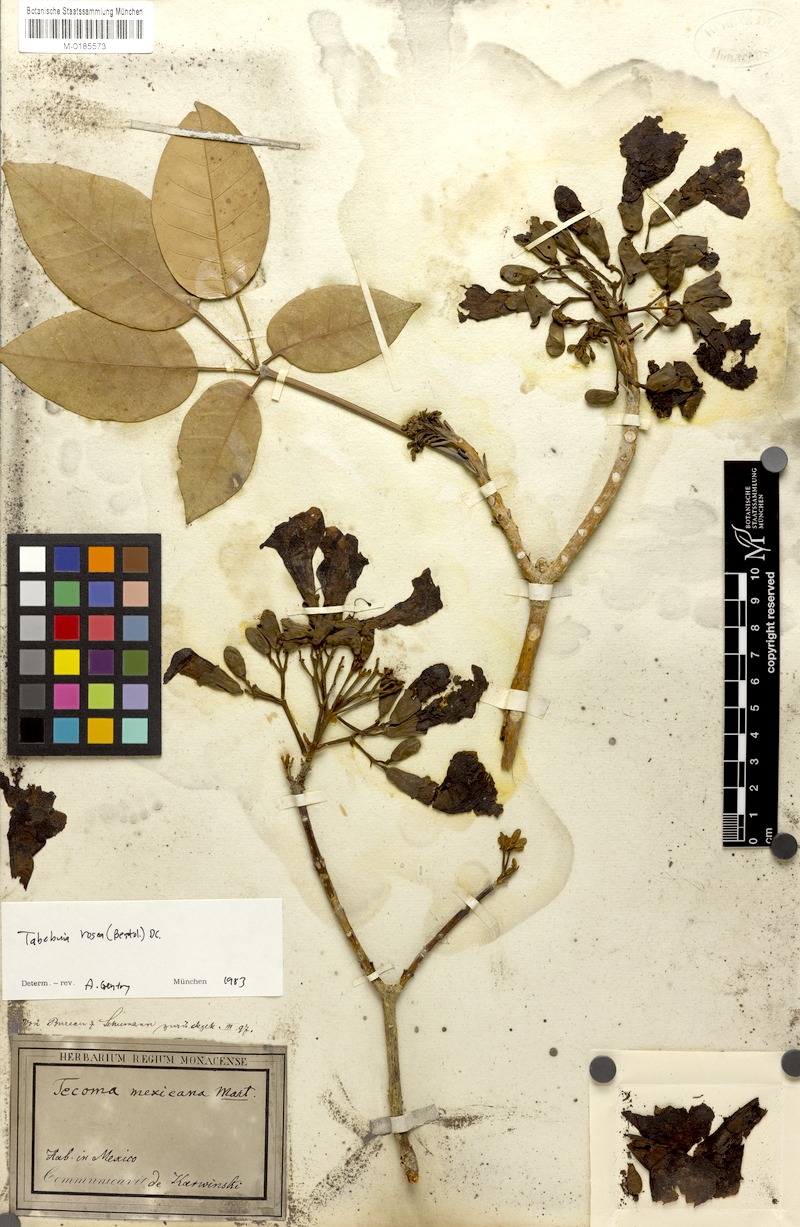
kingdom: Plantae
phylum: Tracheophyta
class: Magnoliopsida
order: Lamiales
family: Bignoniaceae
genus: Tabebuia
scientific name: Tabebuia rosea
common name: Pink poui
